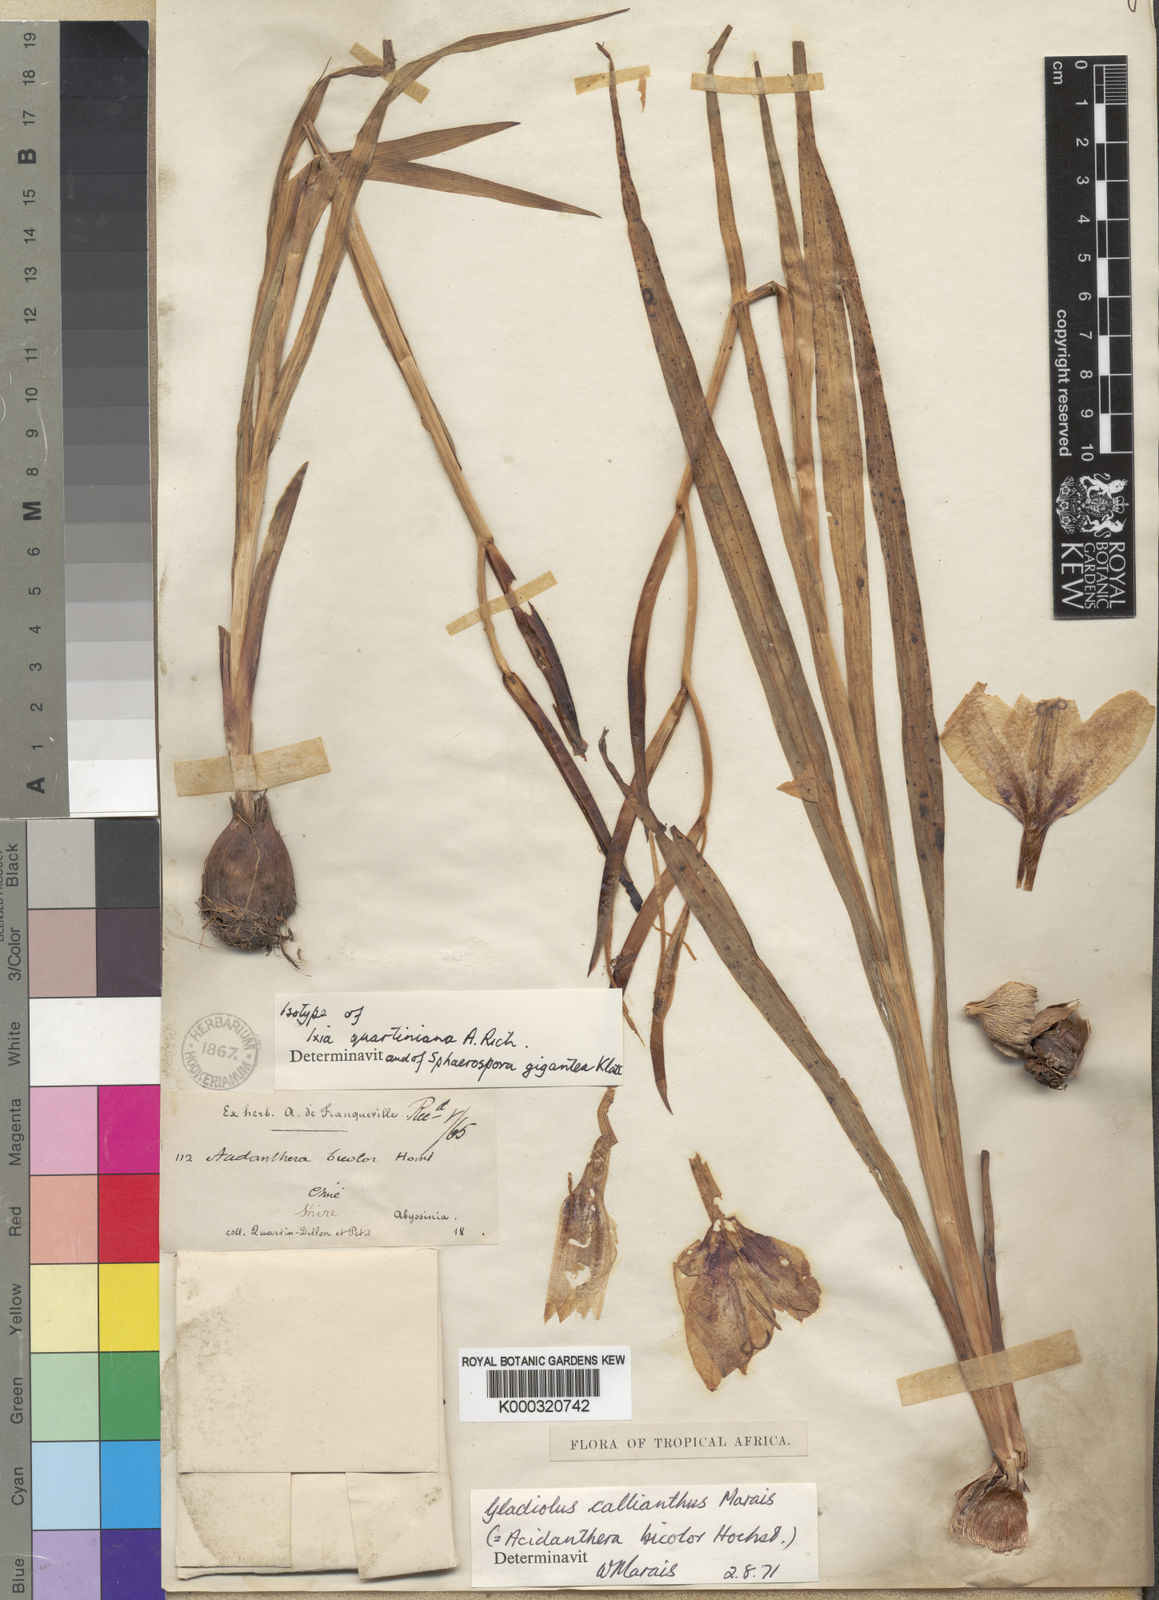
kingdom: Plantae
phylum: Tracheophyta
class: Liliopsida
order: Asparagales
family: Iridaceae
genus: Gladiolus
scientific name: Gladiolus murielae
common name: Acidanthera
